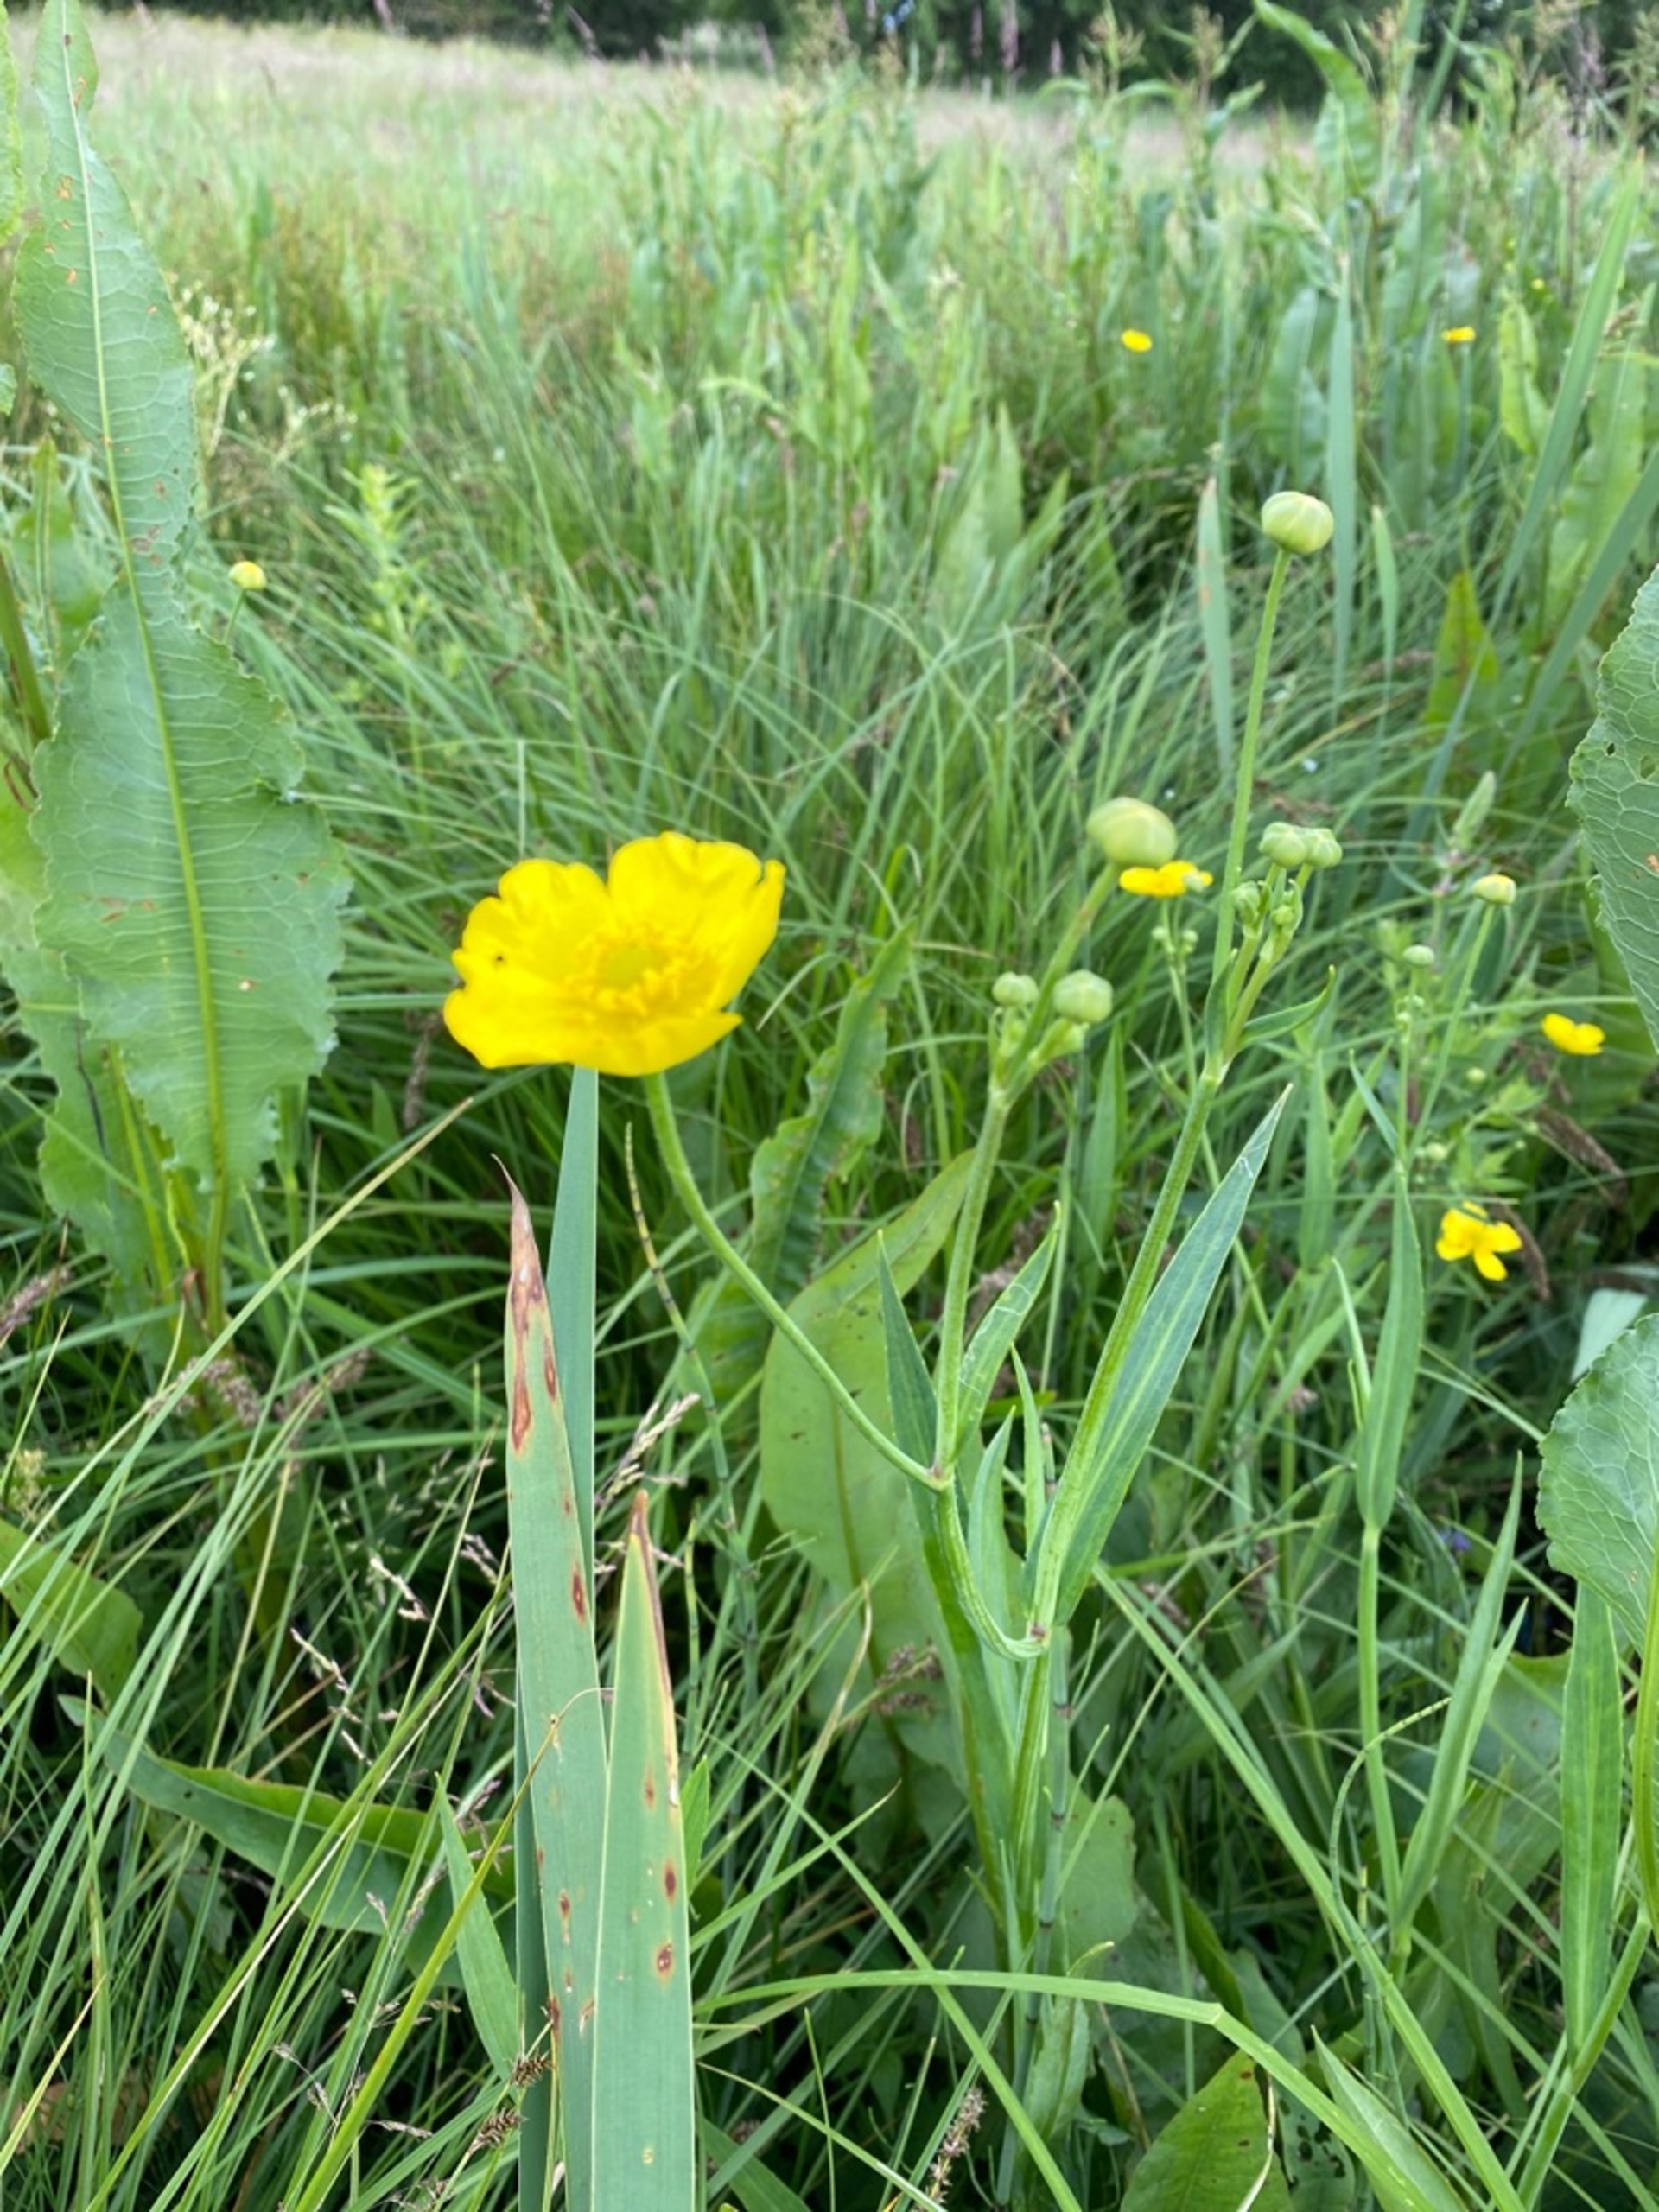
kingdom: Plantae
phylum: Tracheophyta
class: Magnoliopsida
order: Ranunculales
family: Ranunculaceae
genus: Ranunculus
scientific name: Ranunculus lingua
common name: Langbladet ranunkel
